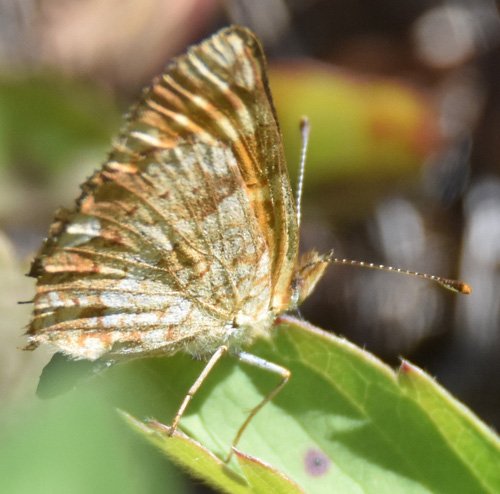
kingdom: Animalia
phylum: Arthropoda
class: Insecta
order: Lepidoptera
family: Nymphalidae
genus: Phyciodes
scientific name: Phyciodes tharos
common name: Field Crescent
